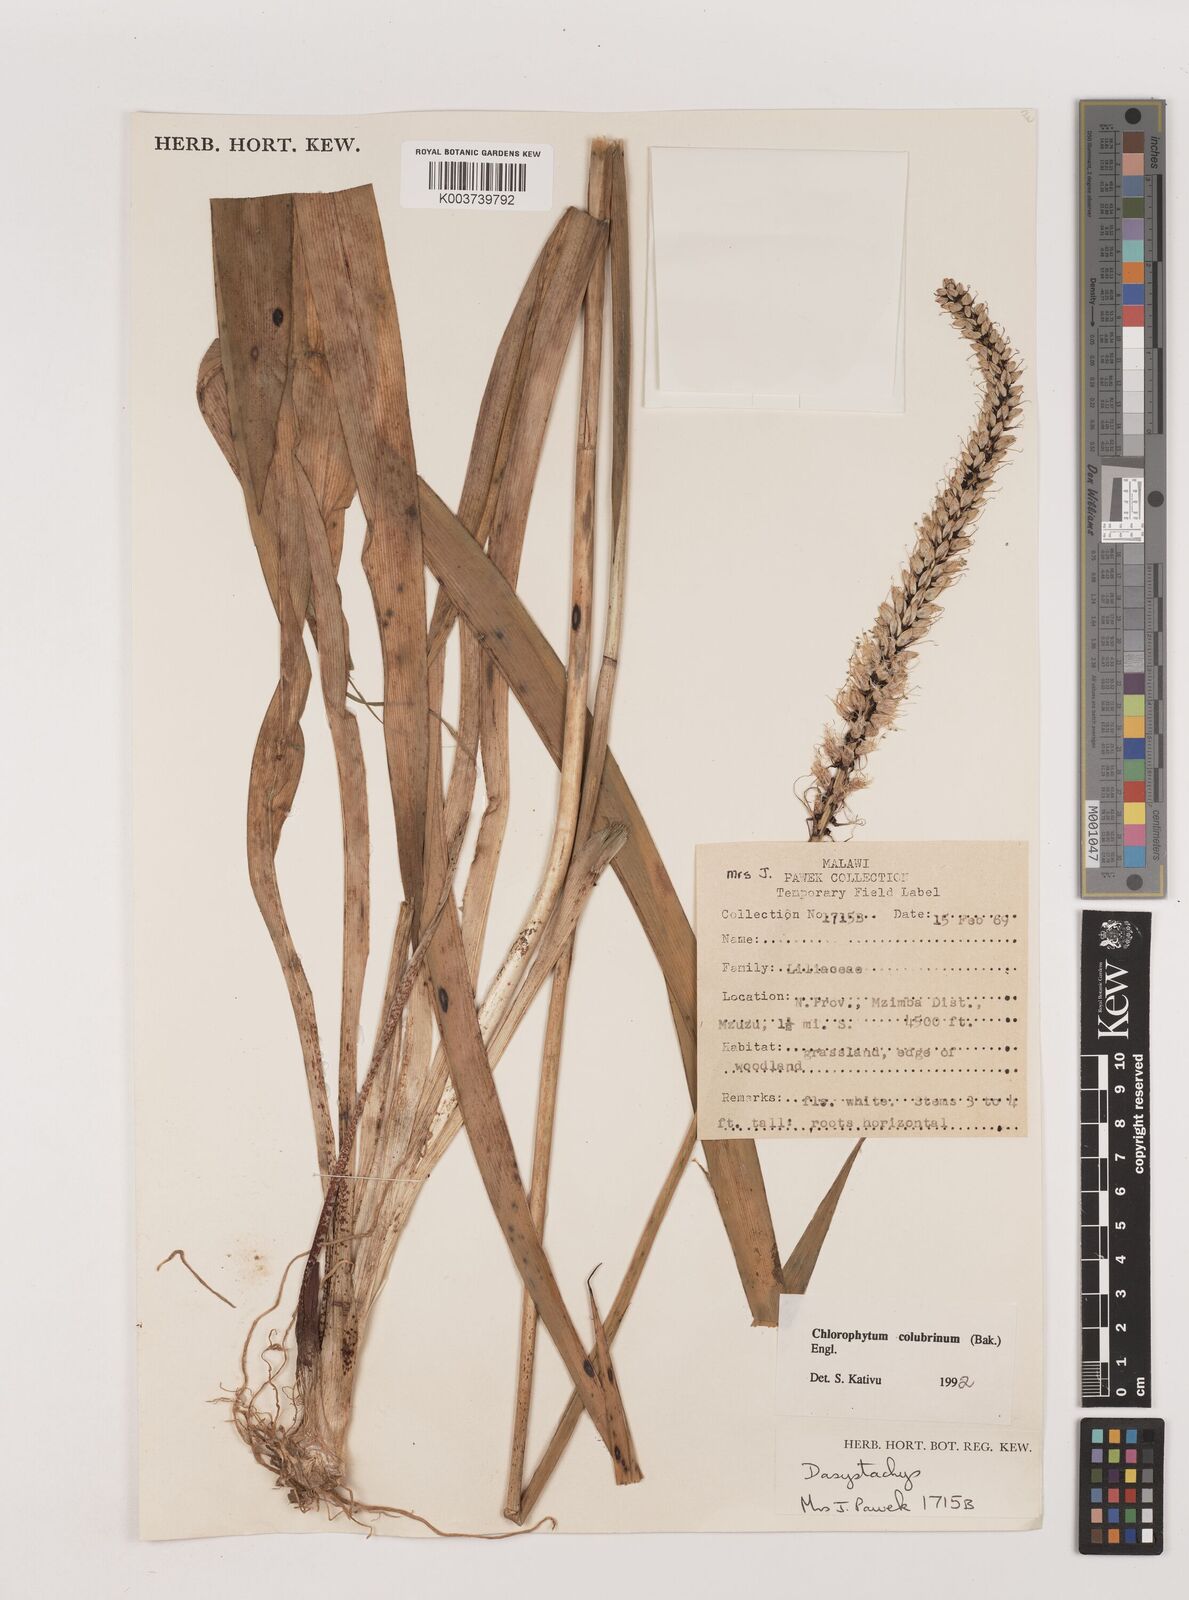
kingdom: Plantae
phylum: Tracheophyta
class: Liliopsida
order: Asparagales
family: Asparagaceae
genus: Chlorophytum
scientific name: Chlorophytum colubrinum
